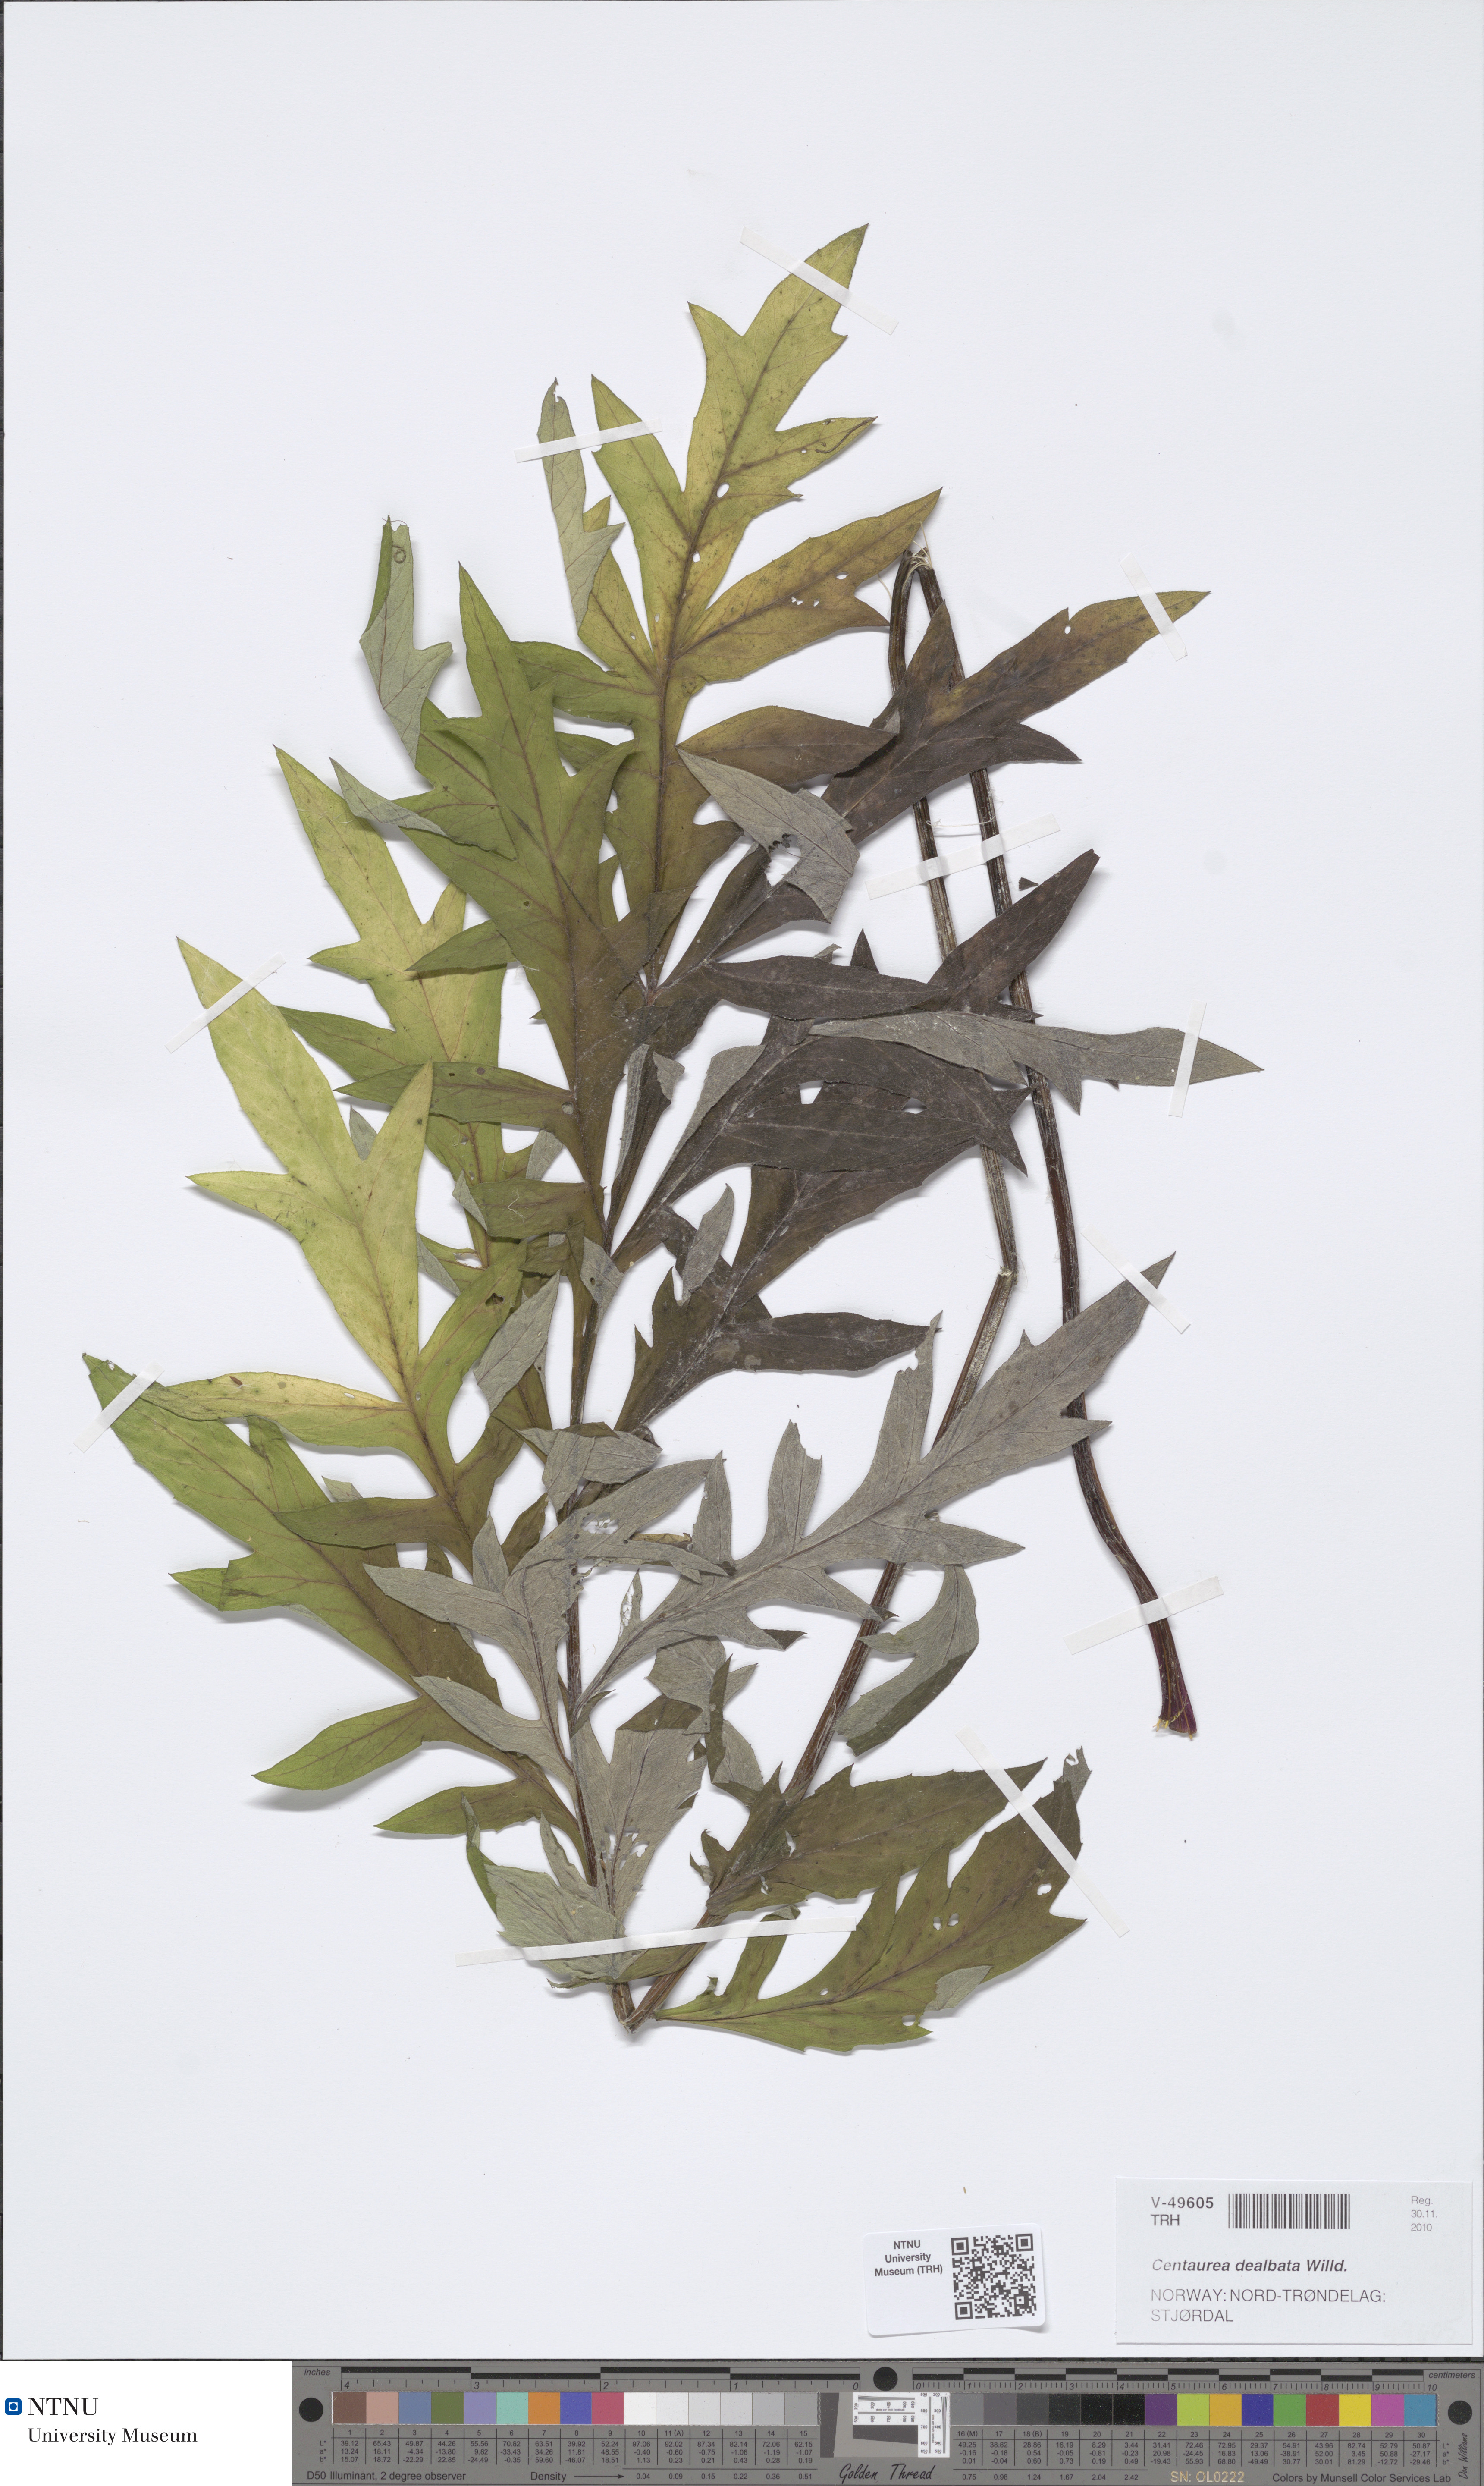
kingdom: Plantae
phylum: Tracheophyta
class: Magnoliopsida
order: Asterales
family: Asteraceae
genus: Psephellus
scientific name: Psephellus dealbatus
